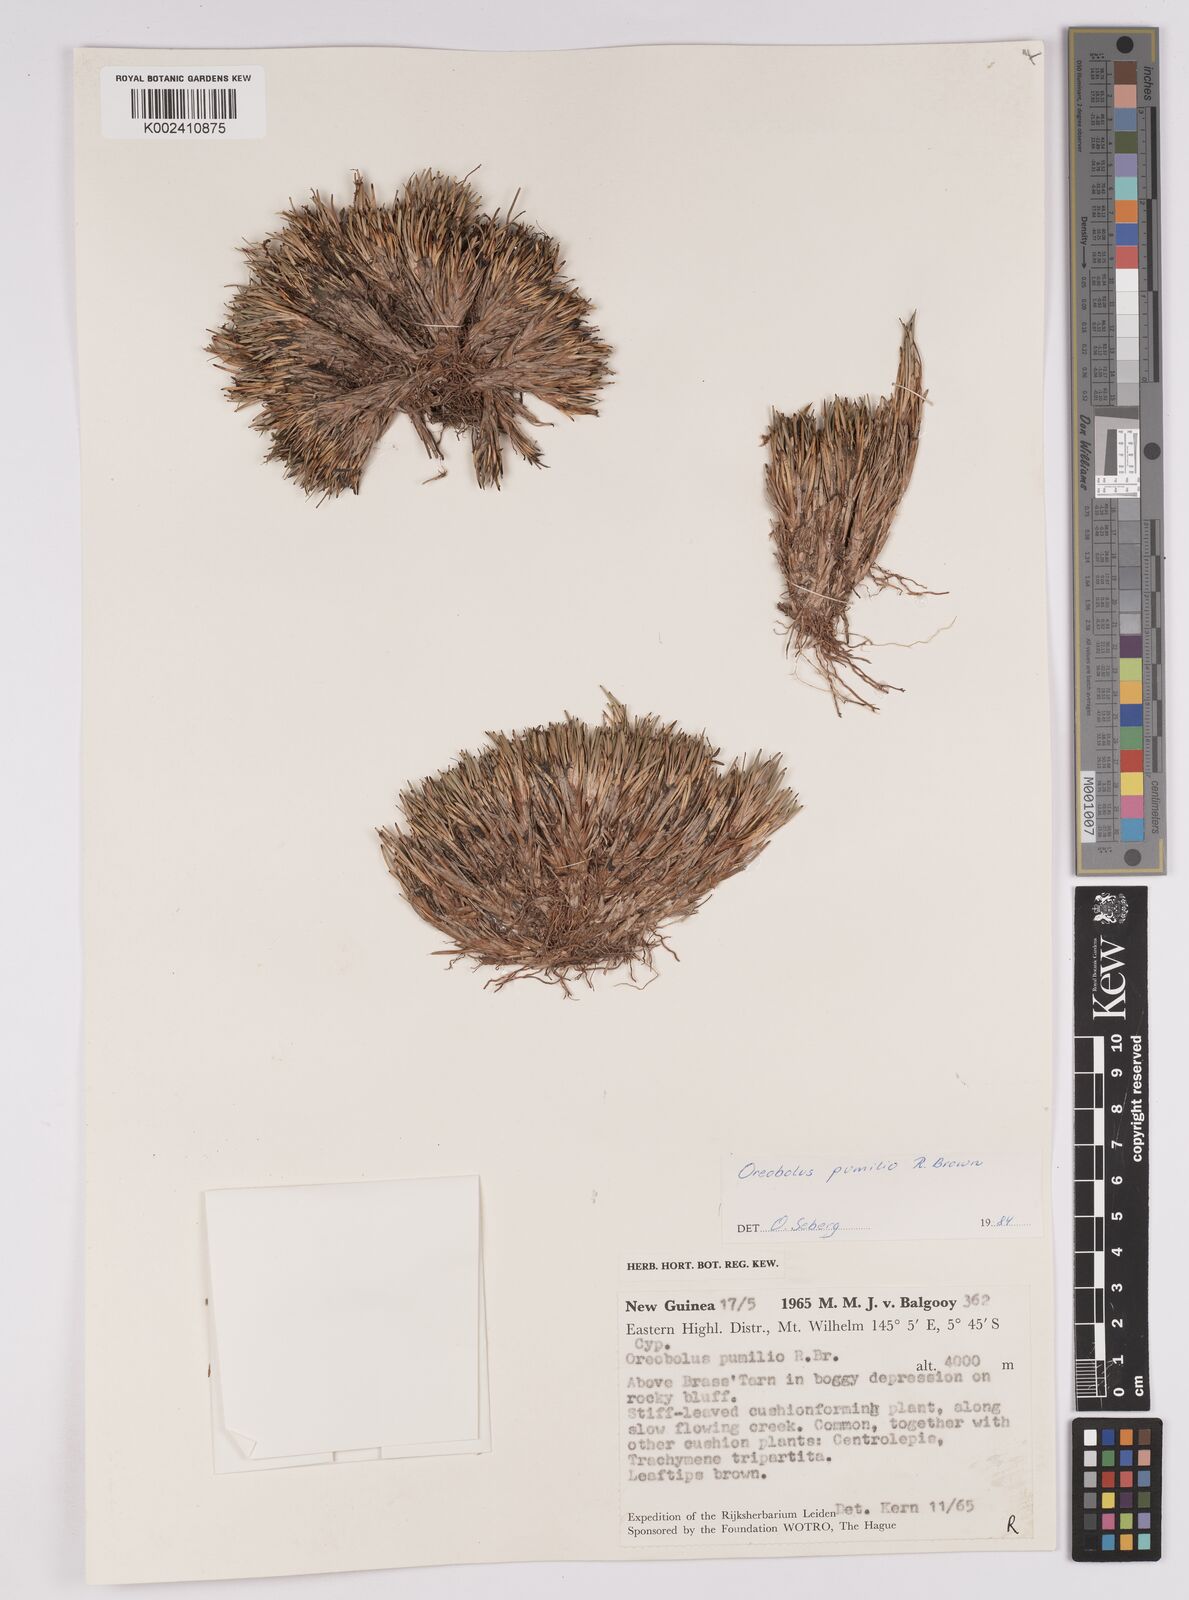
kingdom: Plantae
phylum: Tracheophyta
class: Liliopsida
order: Poales
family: Cyperaceae
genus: Oreobolus
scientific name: Oreobolus pumilio
